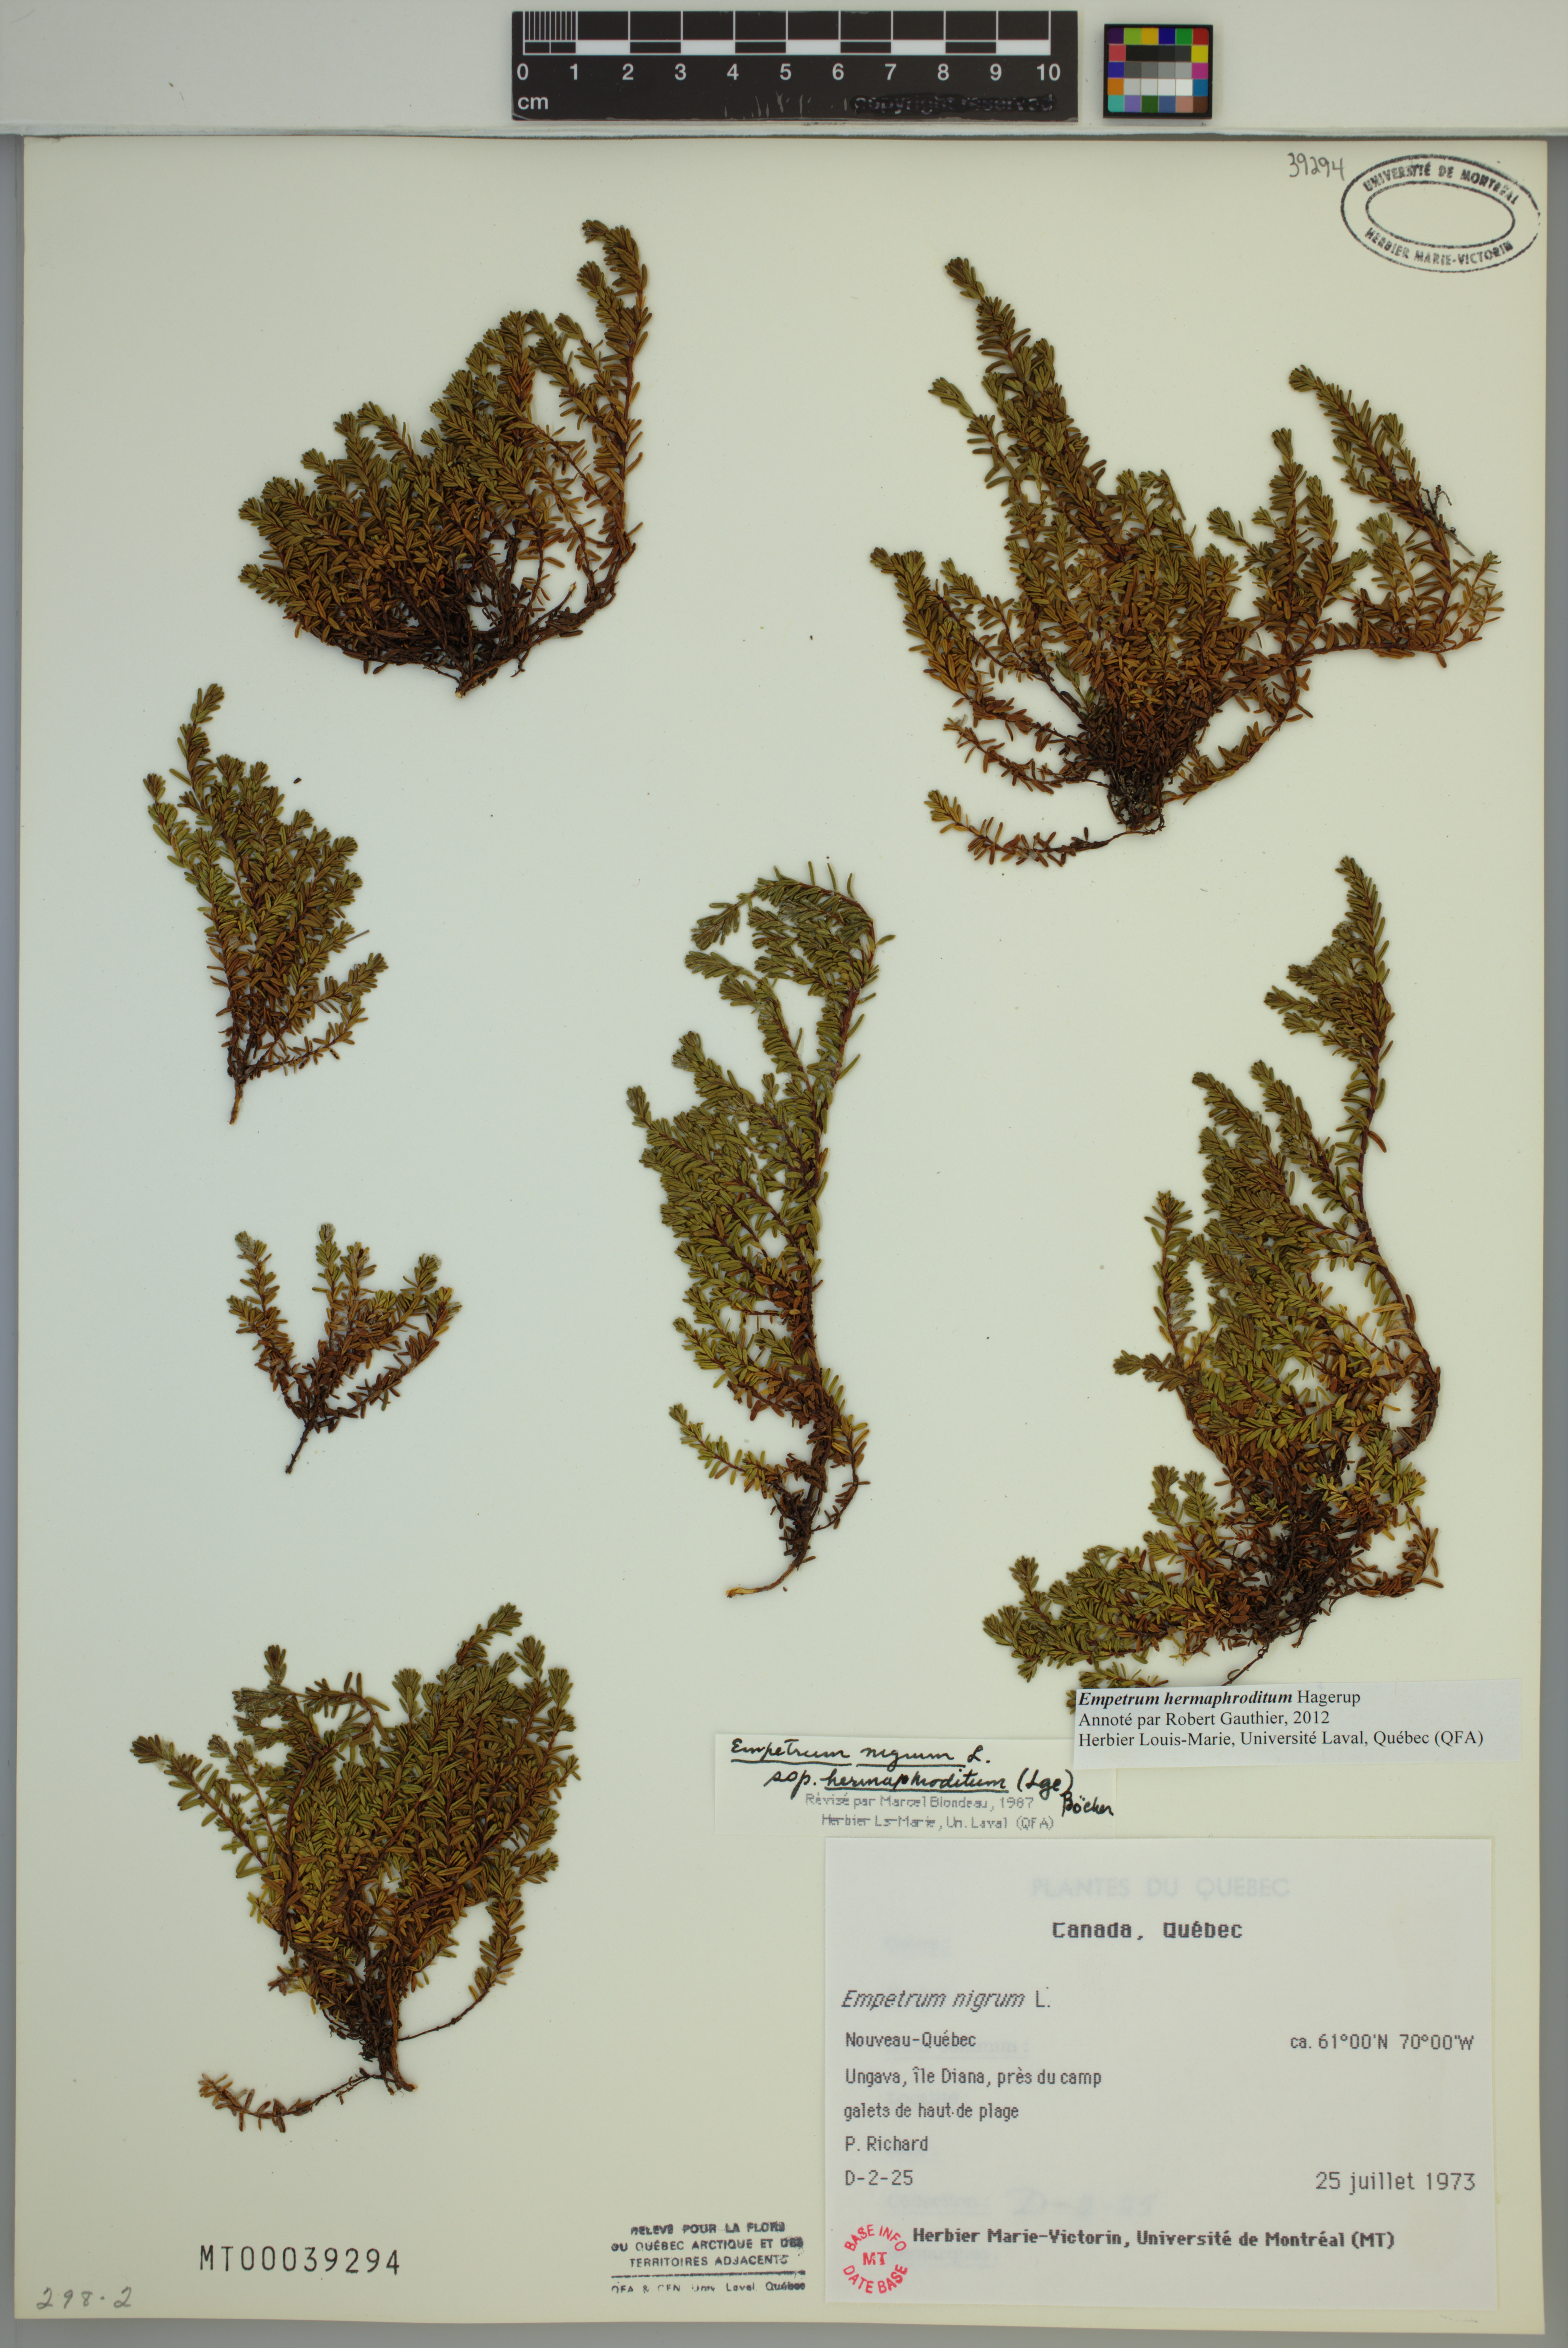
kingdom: Plantae
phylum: Tracheophyta
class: Magnoliopsida
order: Ericales
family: Ericaceae
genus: Empetrum
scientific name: Empetrum hermaphroditum
